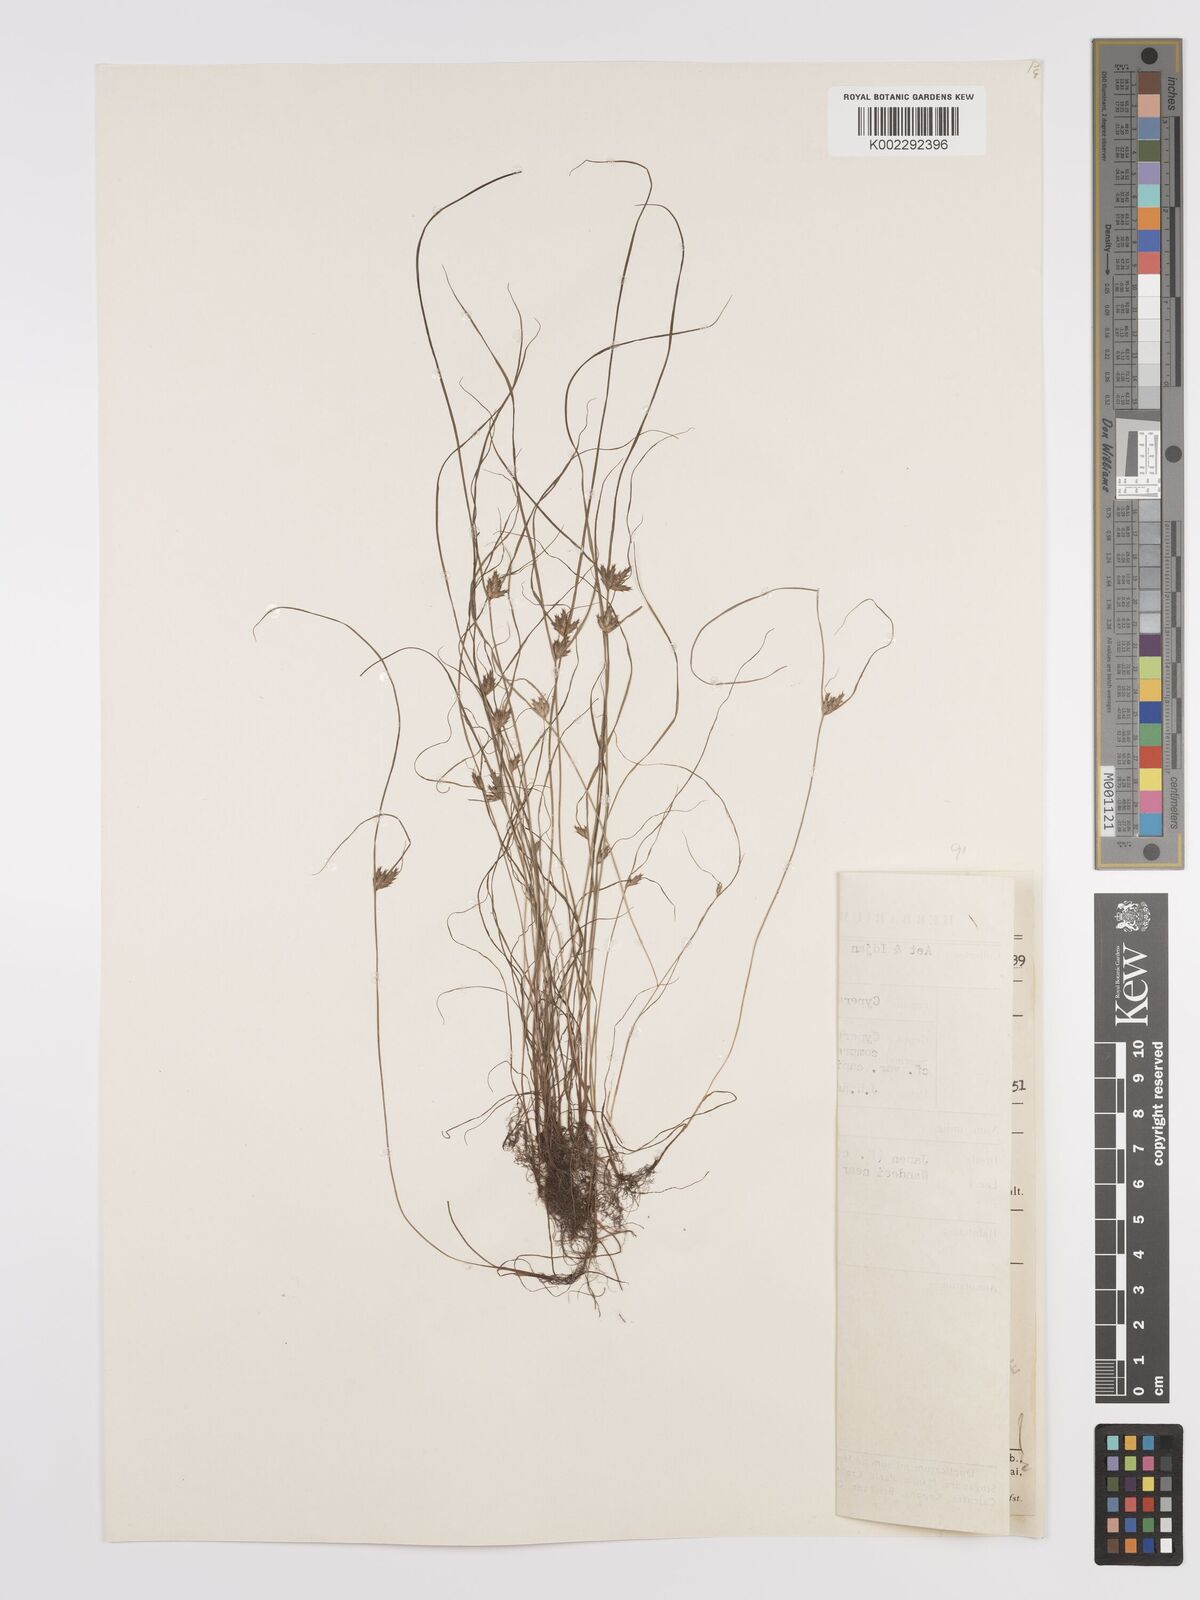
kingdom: Plantae
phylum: Tracheophyta
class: Liliopsida
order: Poales
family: Cyperaceae
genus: Cyperus
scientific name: Cyperus compressus
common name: Poorland flatsedge
